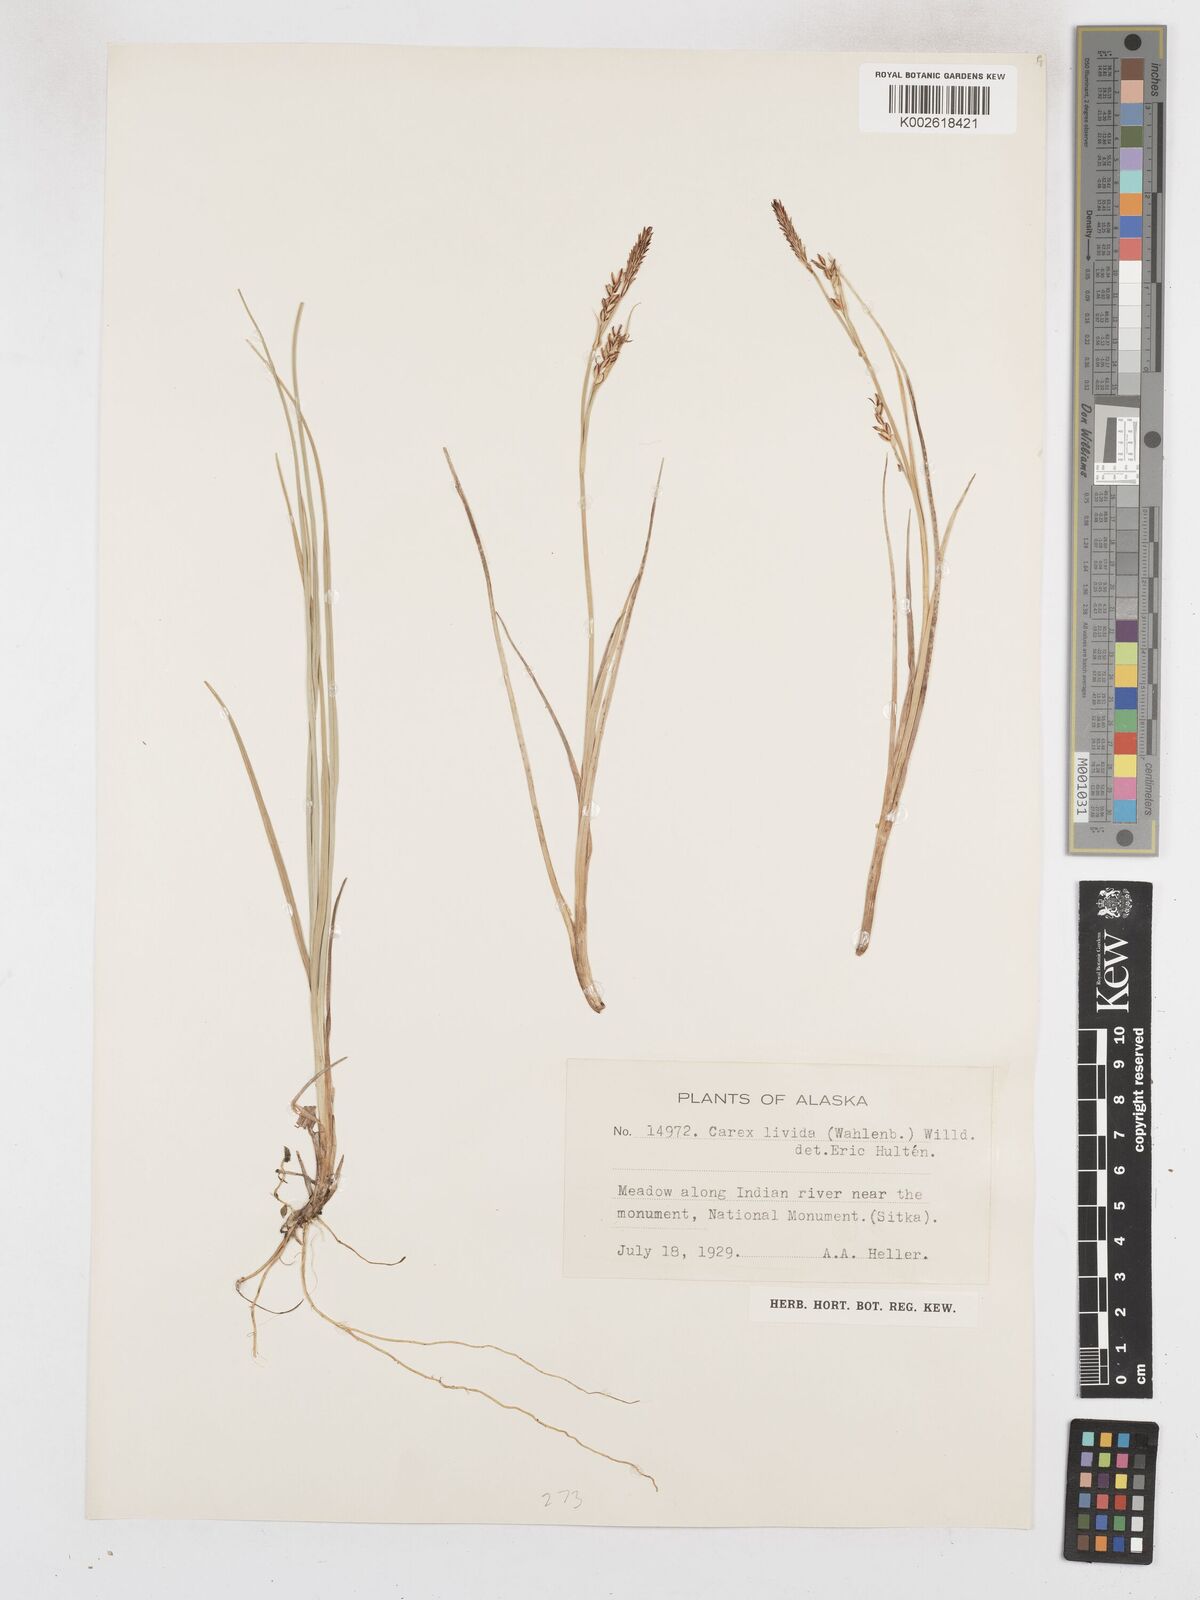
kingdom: Plantae
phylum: Tracheophyta
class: Liliopsida
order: Poales
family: Cyperaceae
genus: Carex
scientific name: Carex livida
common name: Livid sedge
